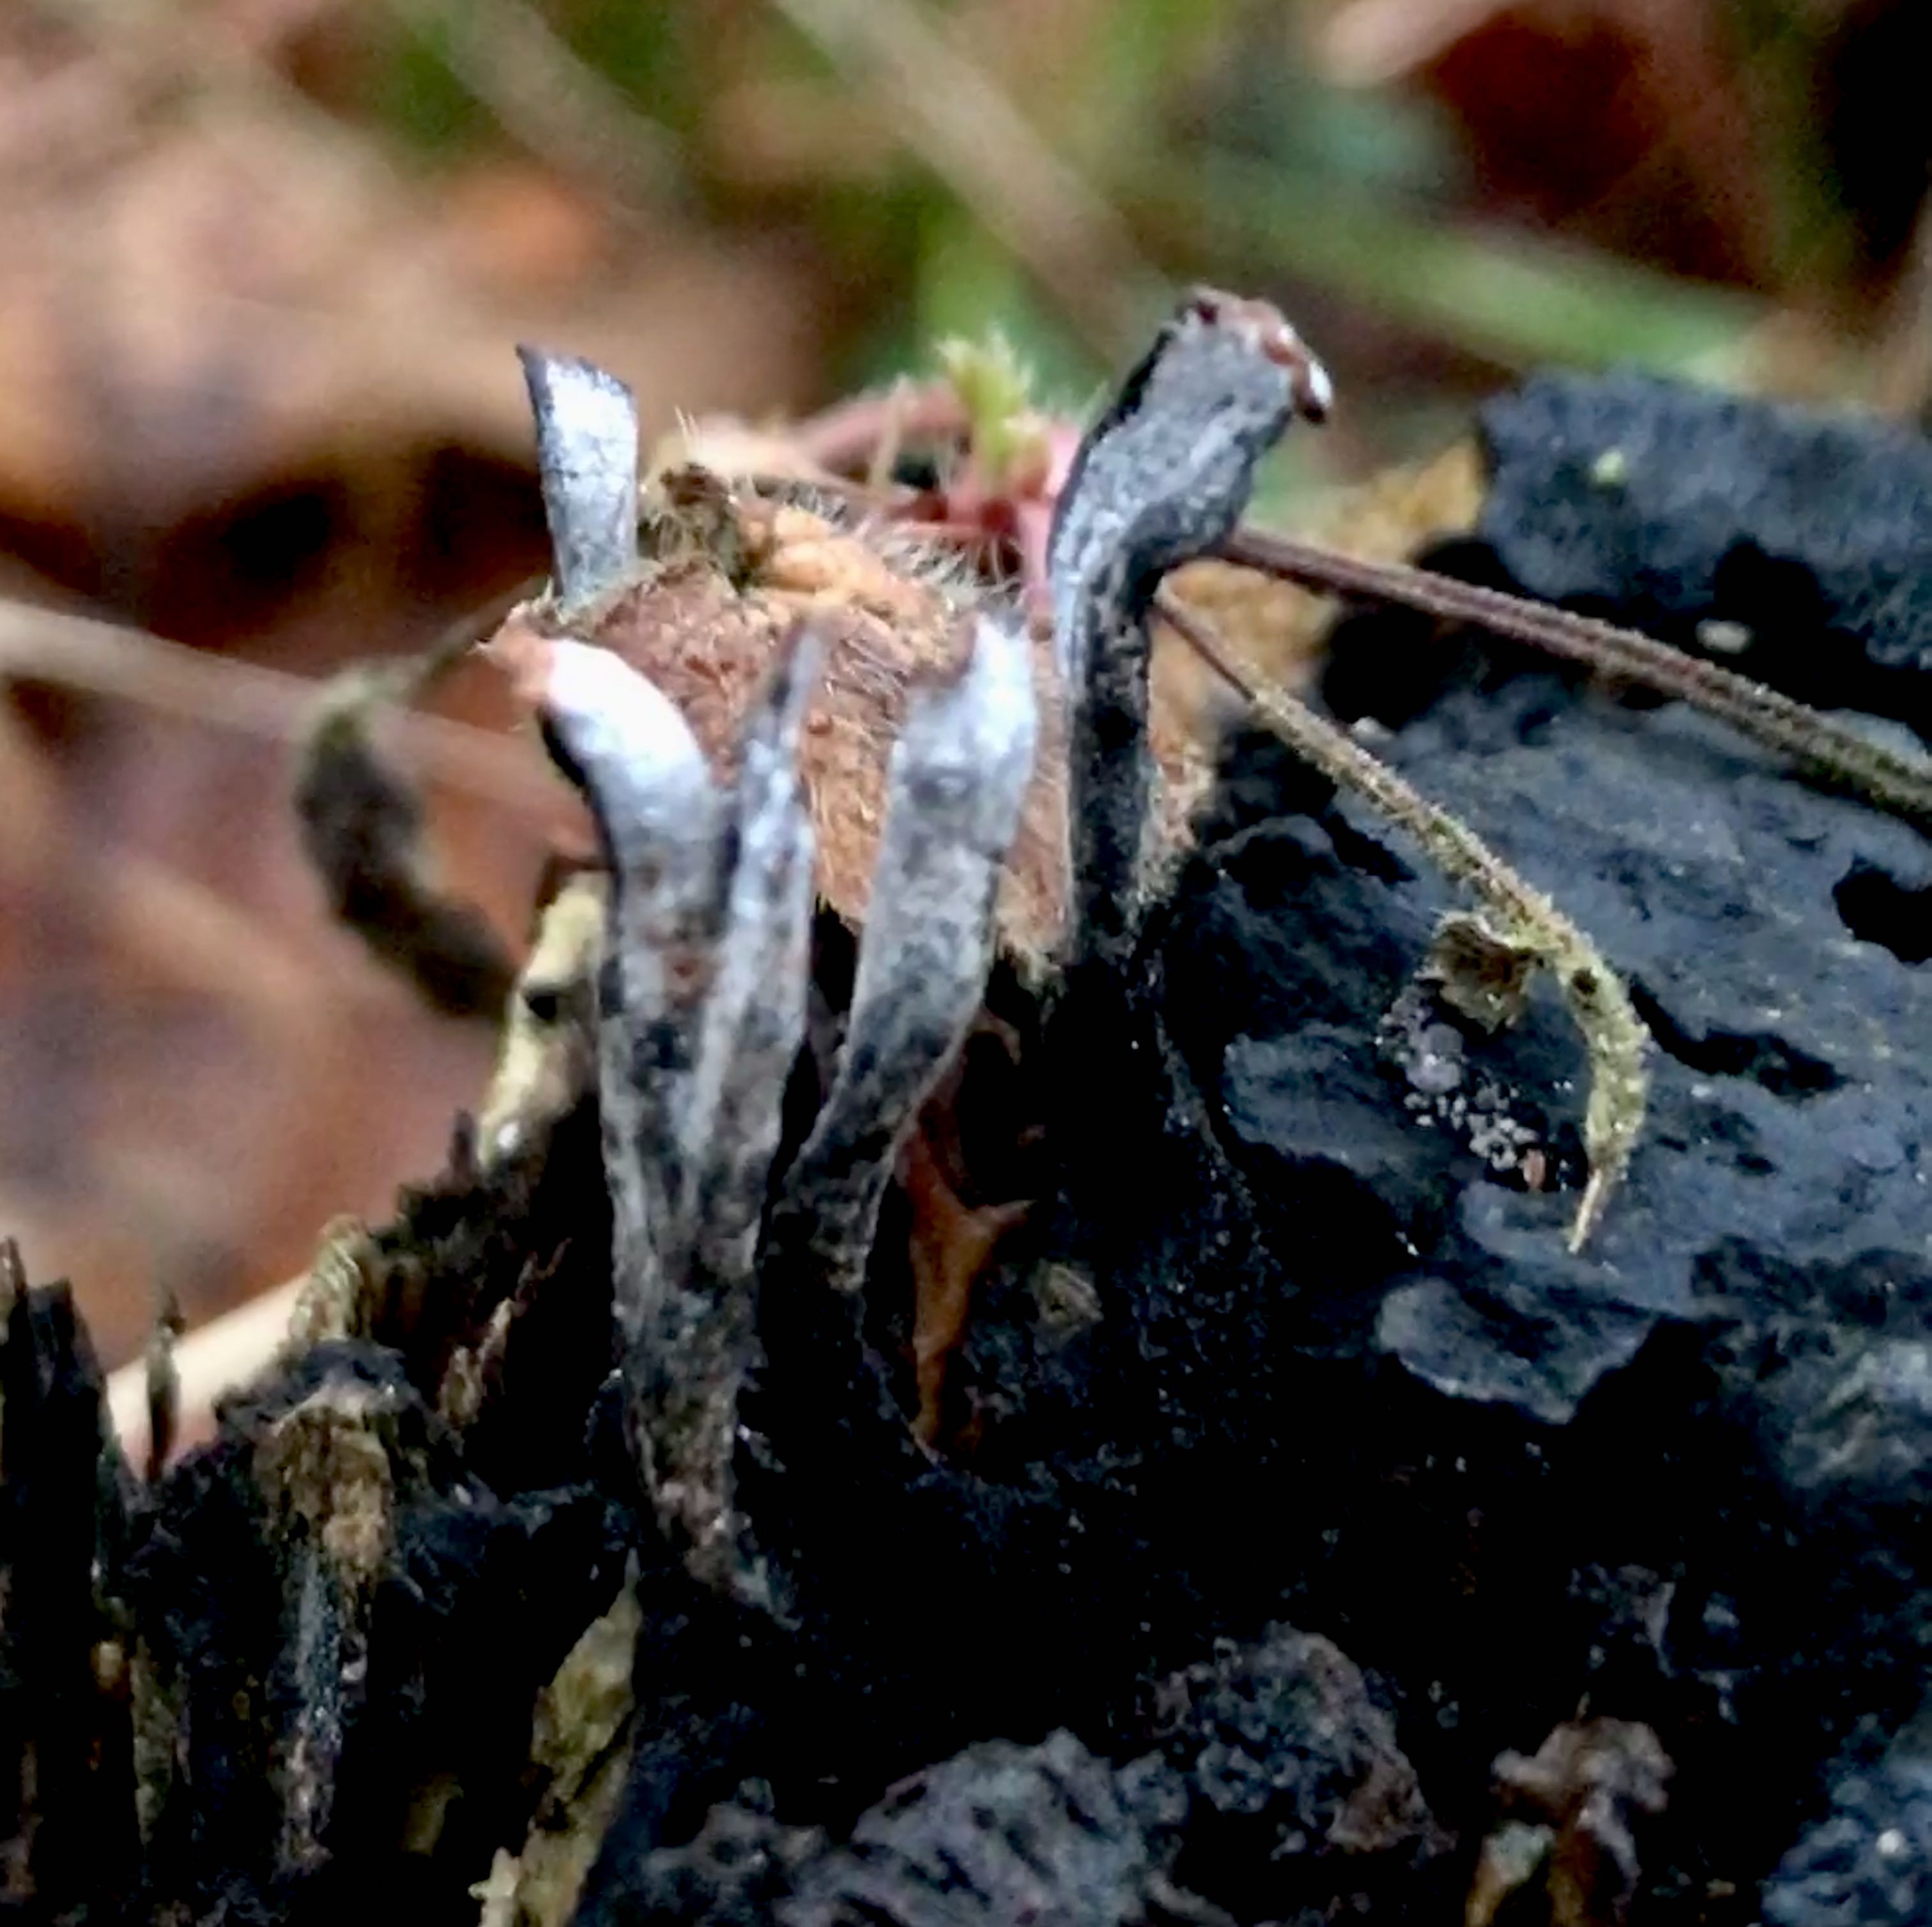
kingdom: Fungi
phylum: Ascomycota
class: Sordariomycetes
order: Xylariales
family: Xylariaceae
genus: Xylaria
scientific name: Xylaria hypoxylon
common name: grenet stødsvamp
